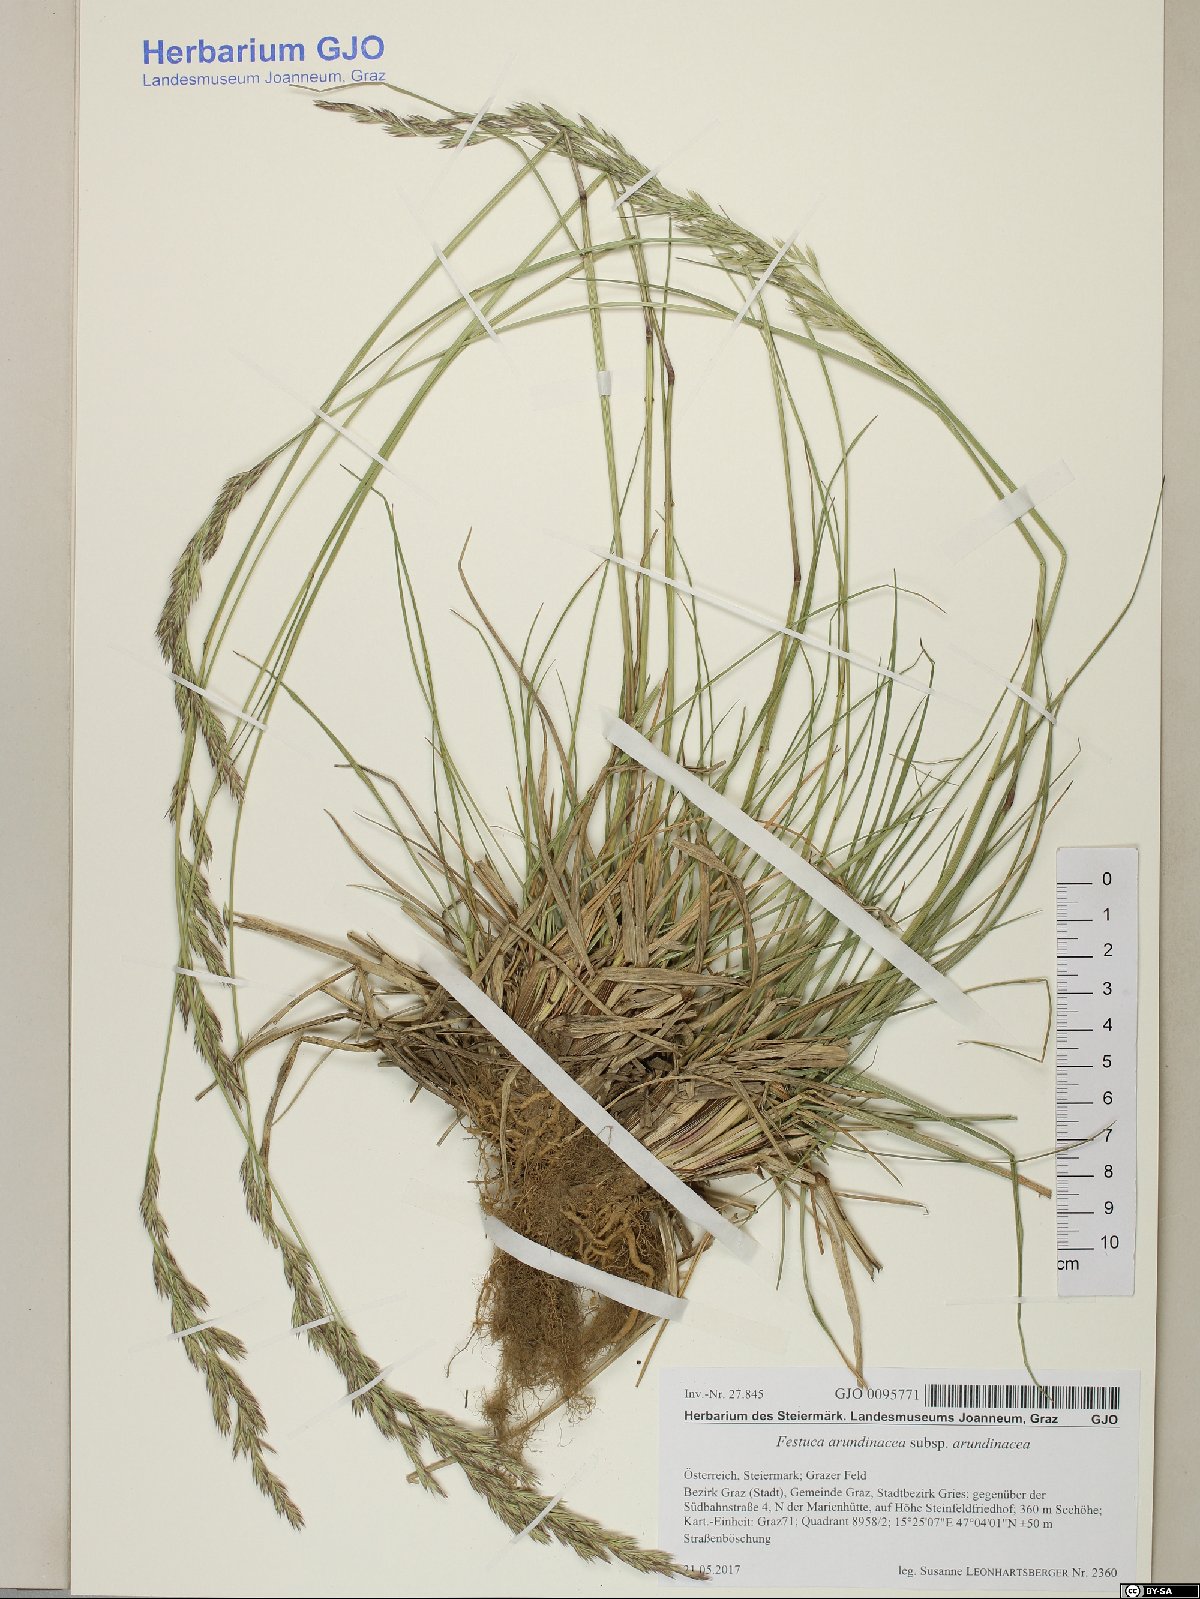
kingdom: Plantae
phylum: Tracheophyta
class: Liliopsida
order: Poales
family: Poaceae
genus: Lolium
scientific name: Lolium arundinaceum
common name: Reed fescue
